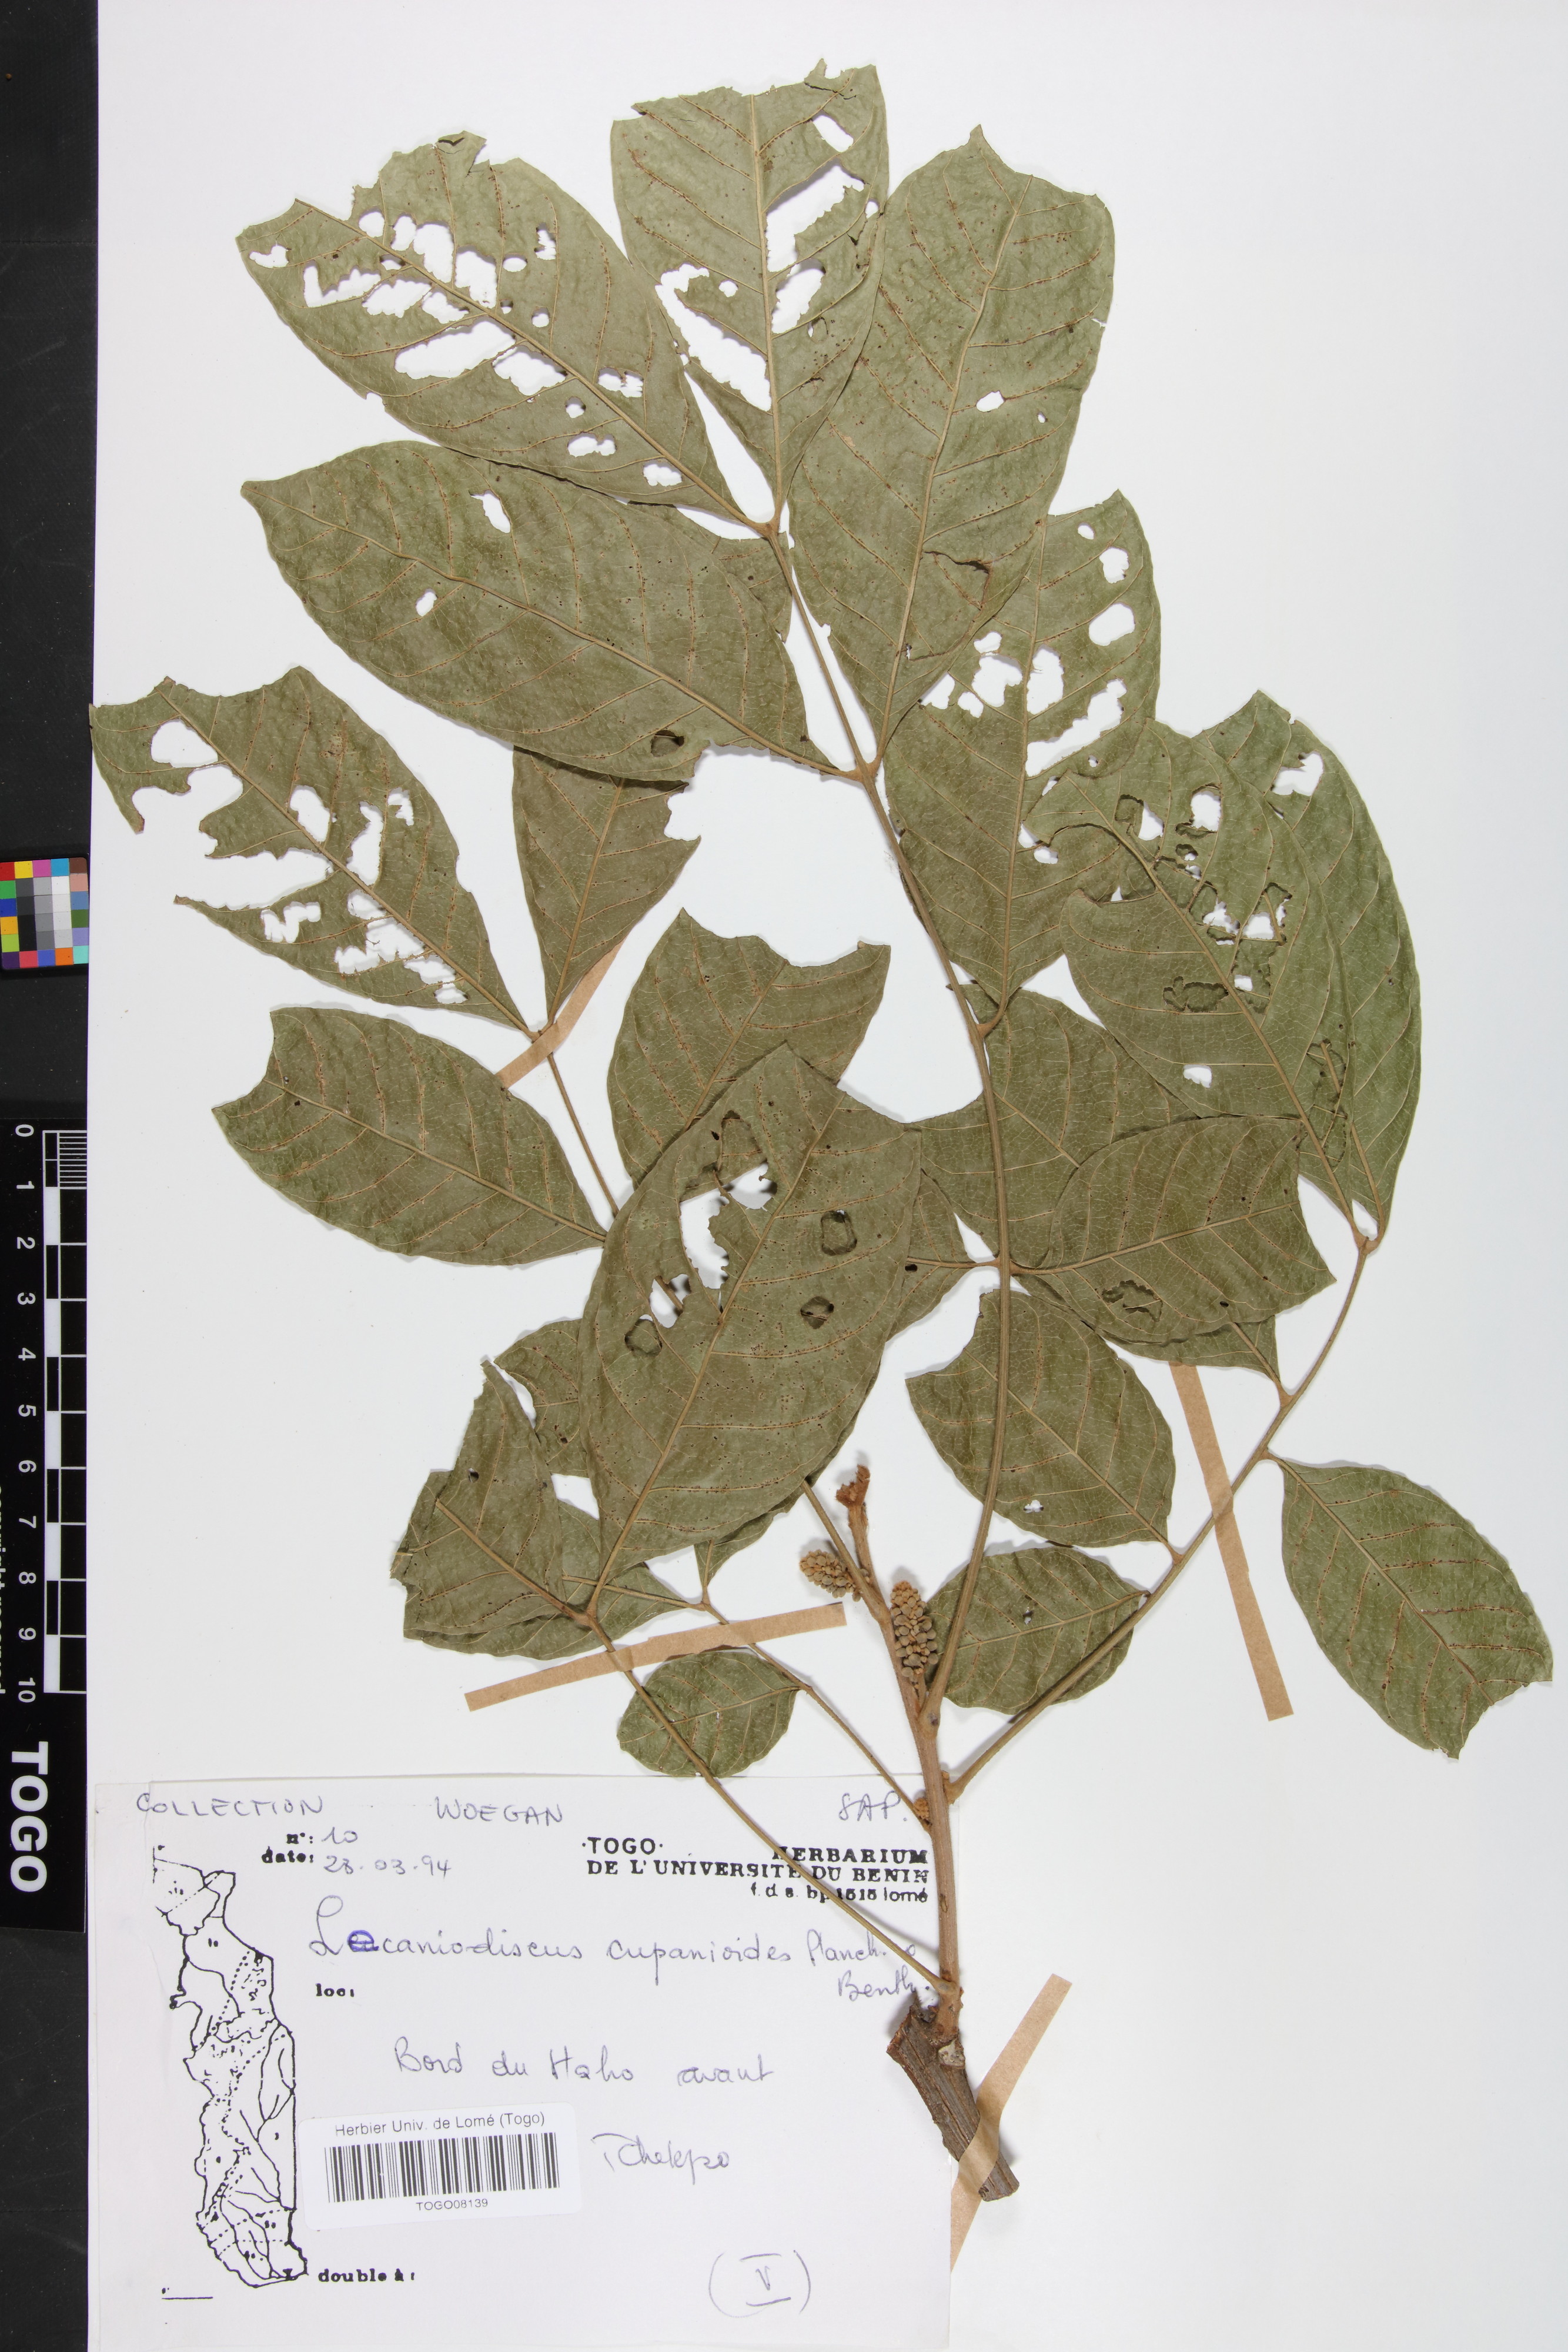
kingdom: Plantae
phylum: Tracheophyta
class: Magnoliopsida
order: Sapindales
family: Sapindaceae
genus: Lecaniodiscus
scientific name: Lecaniodiscus cupanioides
